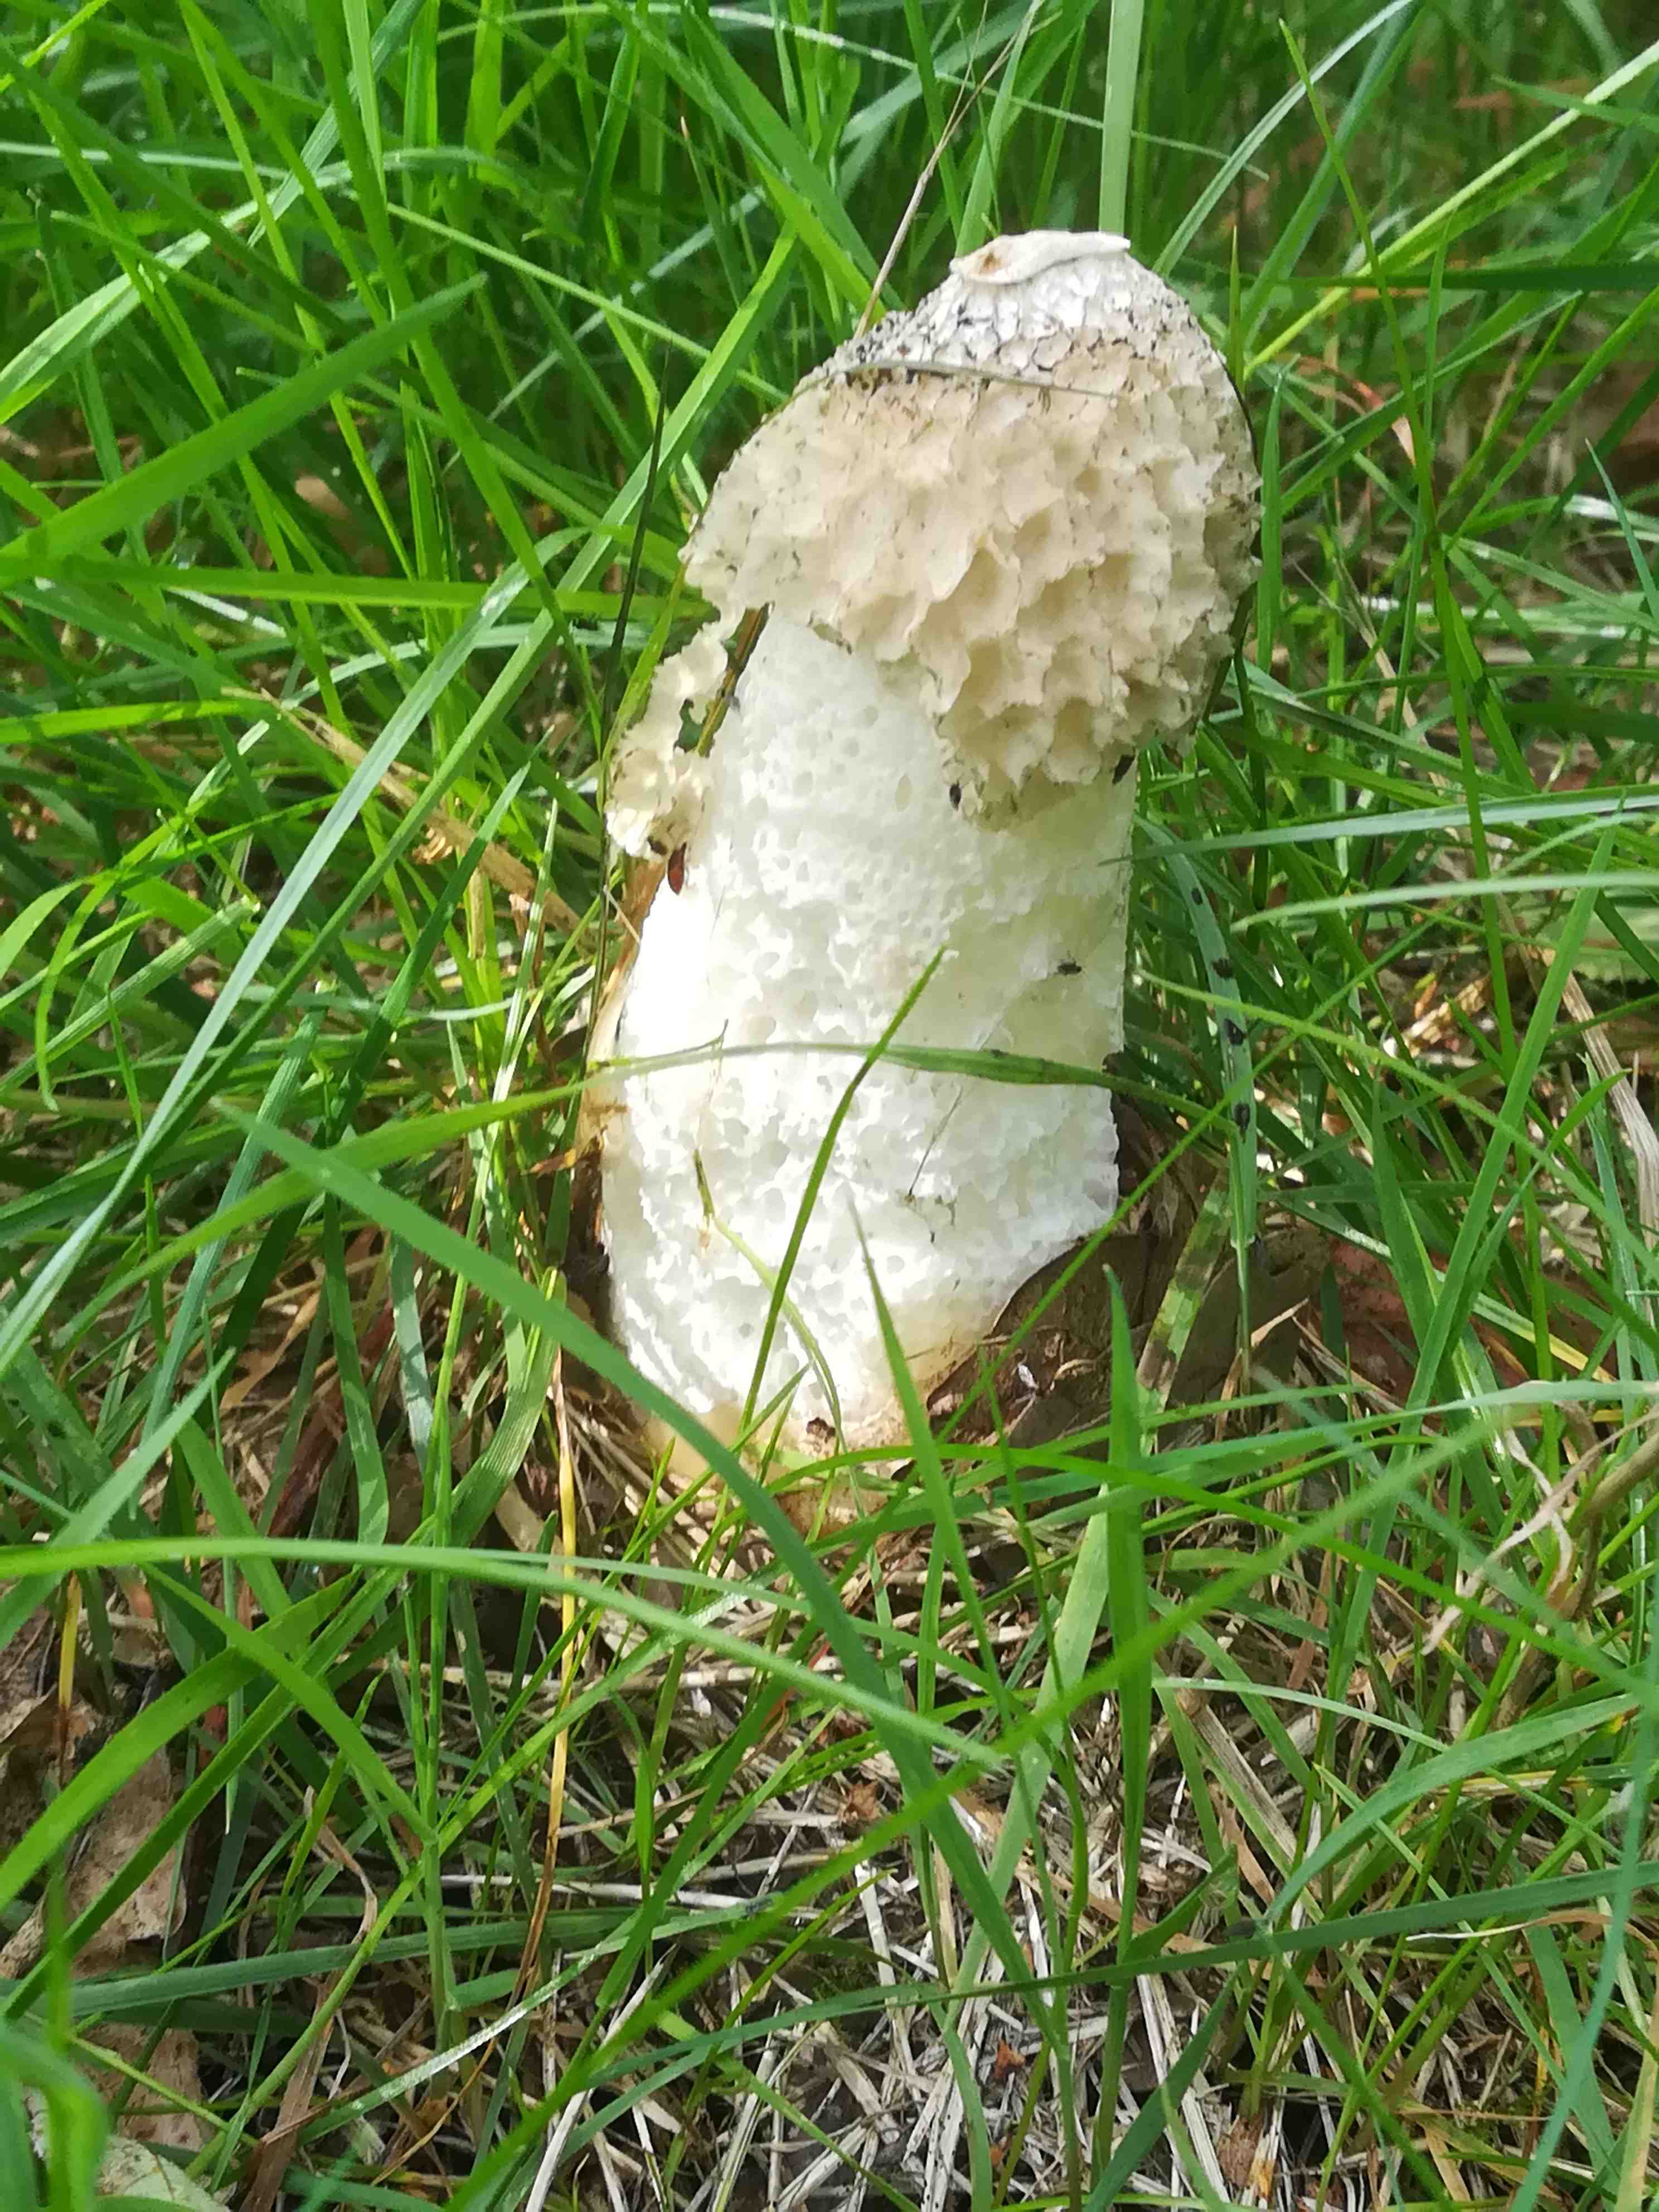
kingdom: Fungi
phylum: Basidiomycota
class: Agaricomycetes
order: Phallales
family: Phallaceae
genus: Phallus
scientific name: Phallus impudicus
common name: almindelig stinksvamp
